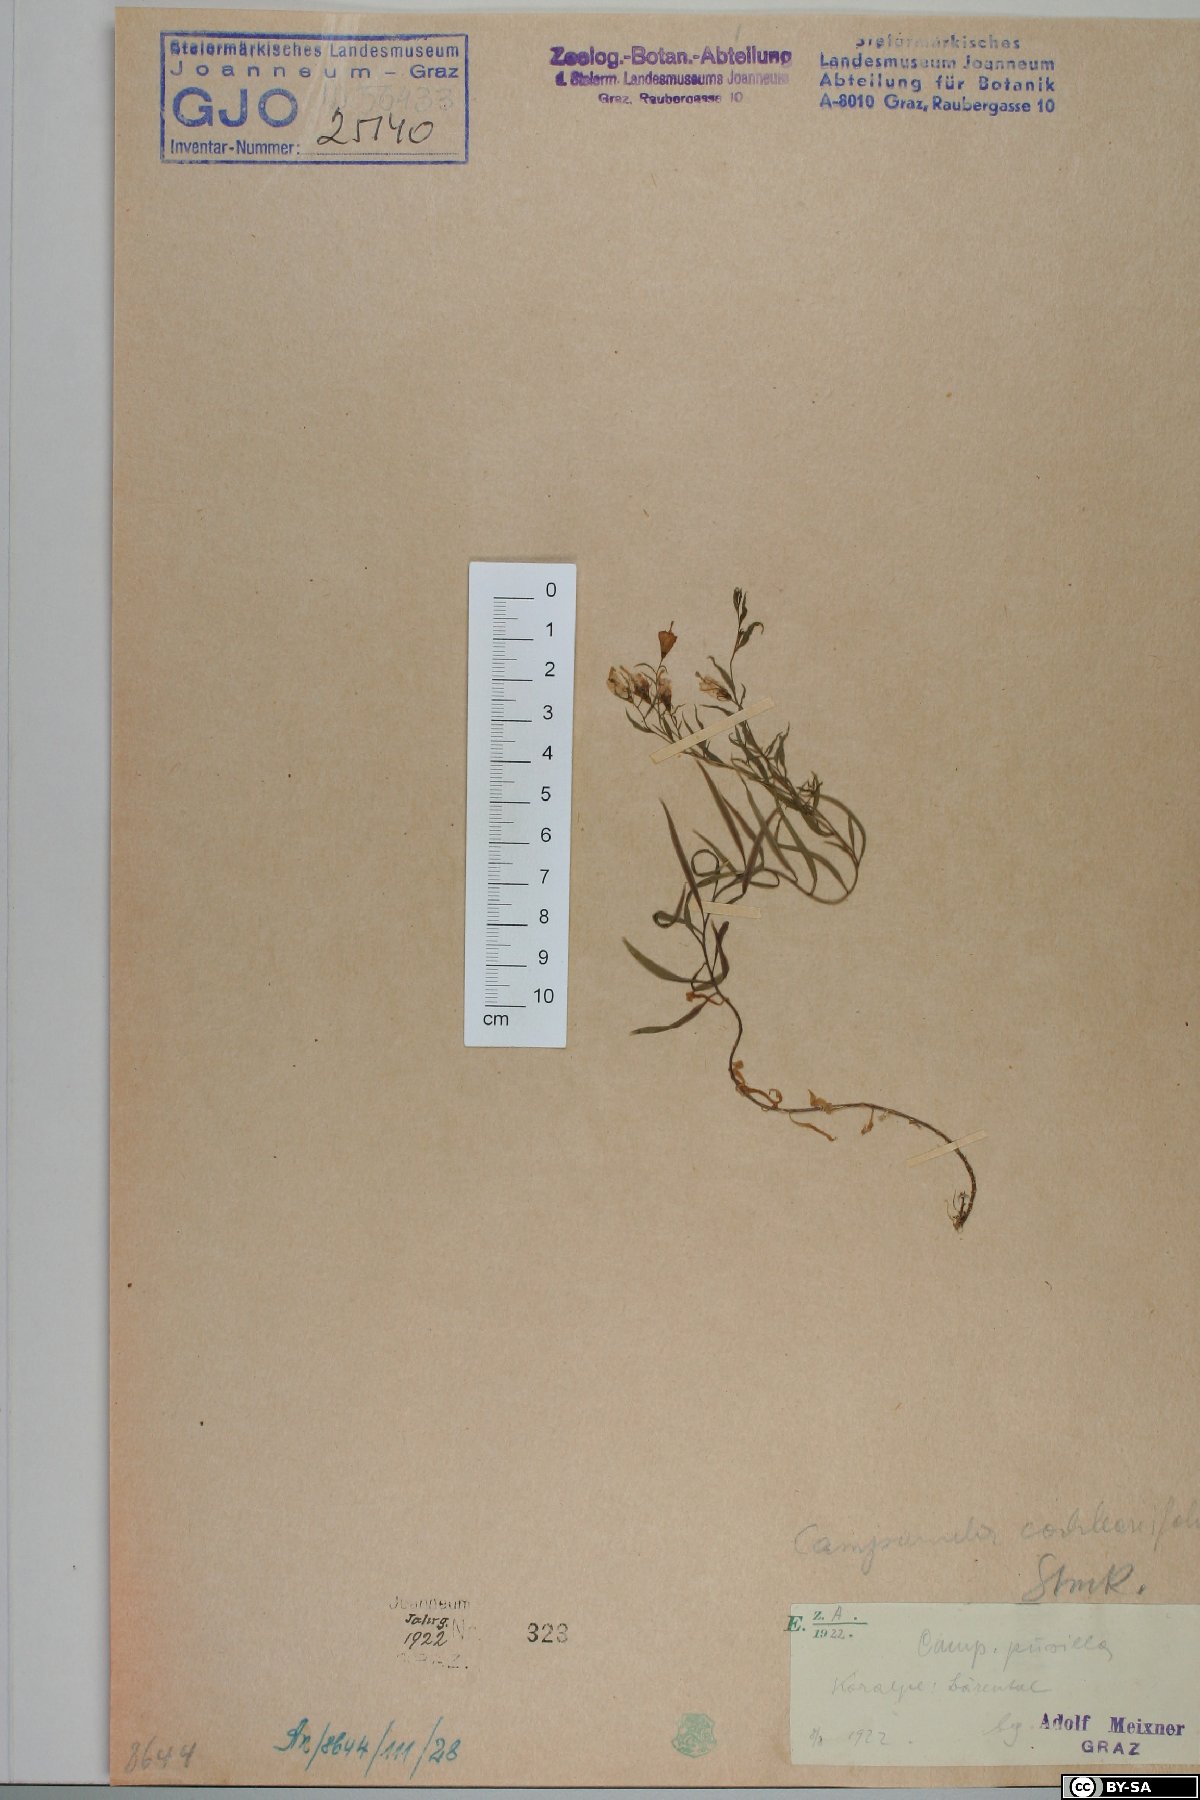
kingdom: Plantae
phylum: Tracheophyta
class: Magnoliopsida
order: Asterales
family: Campanulaceae
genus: Campanula
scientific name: Campanula cochleariifolia
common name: Fairies'-thimbles
